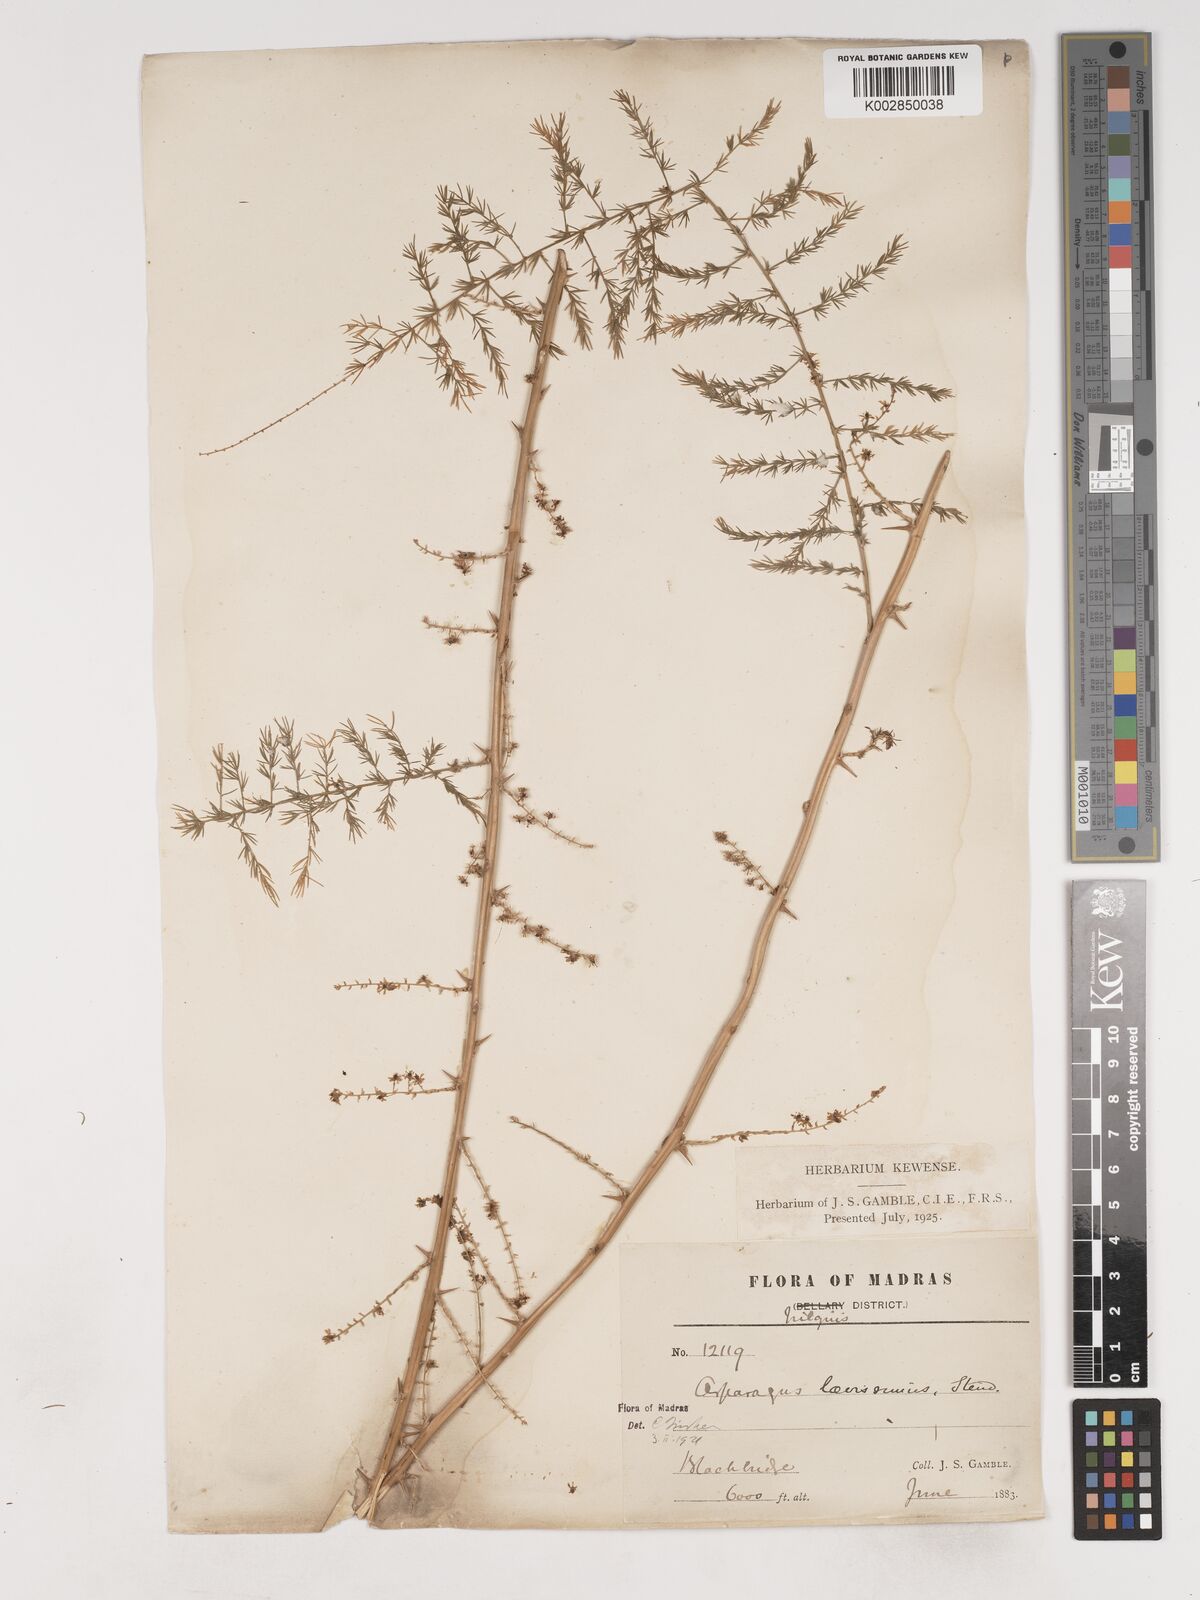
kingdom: Plantae
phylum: Tracheophyta
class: Liliopsida
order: Asparagales
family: Asparagaceae
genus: Asparagus
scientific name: Asparagus laevissimus
